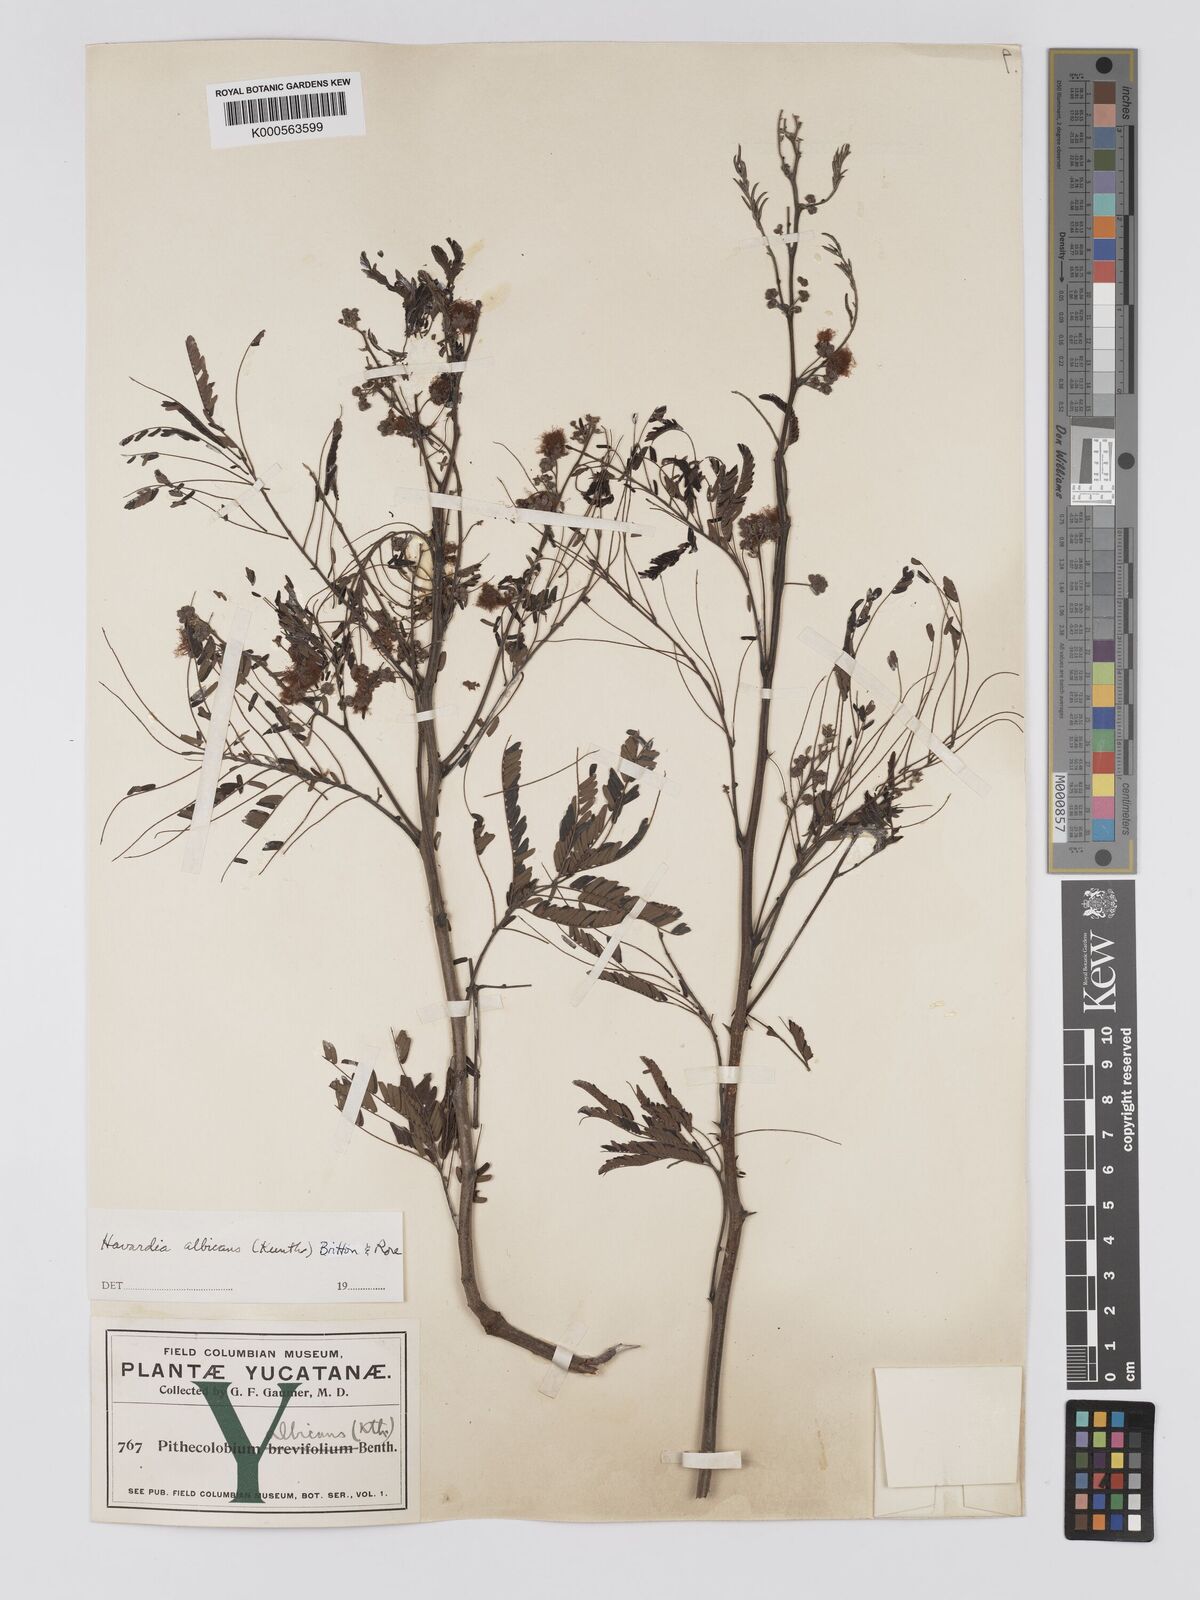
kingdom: Plantae
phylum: Tracheophyta
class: Magnoliopsida
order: Fabales
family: Fabaceae
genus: Havardia
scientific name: Havardia albicans
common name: Huisache
